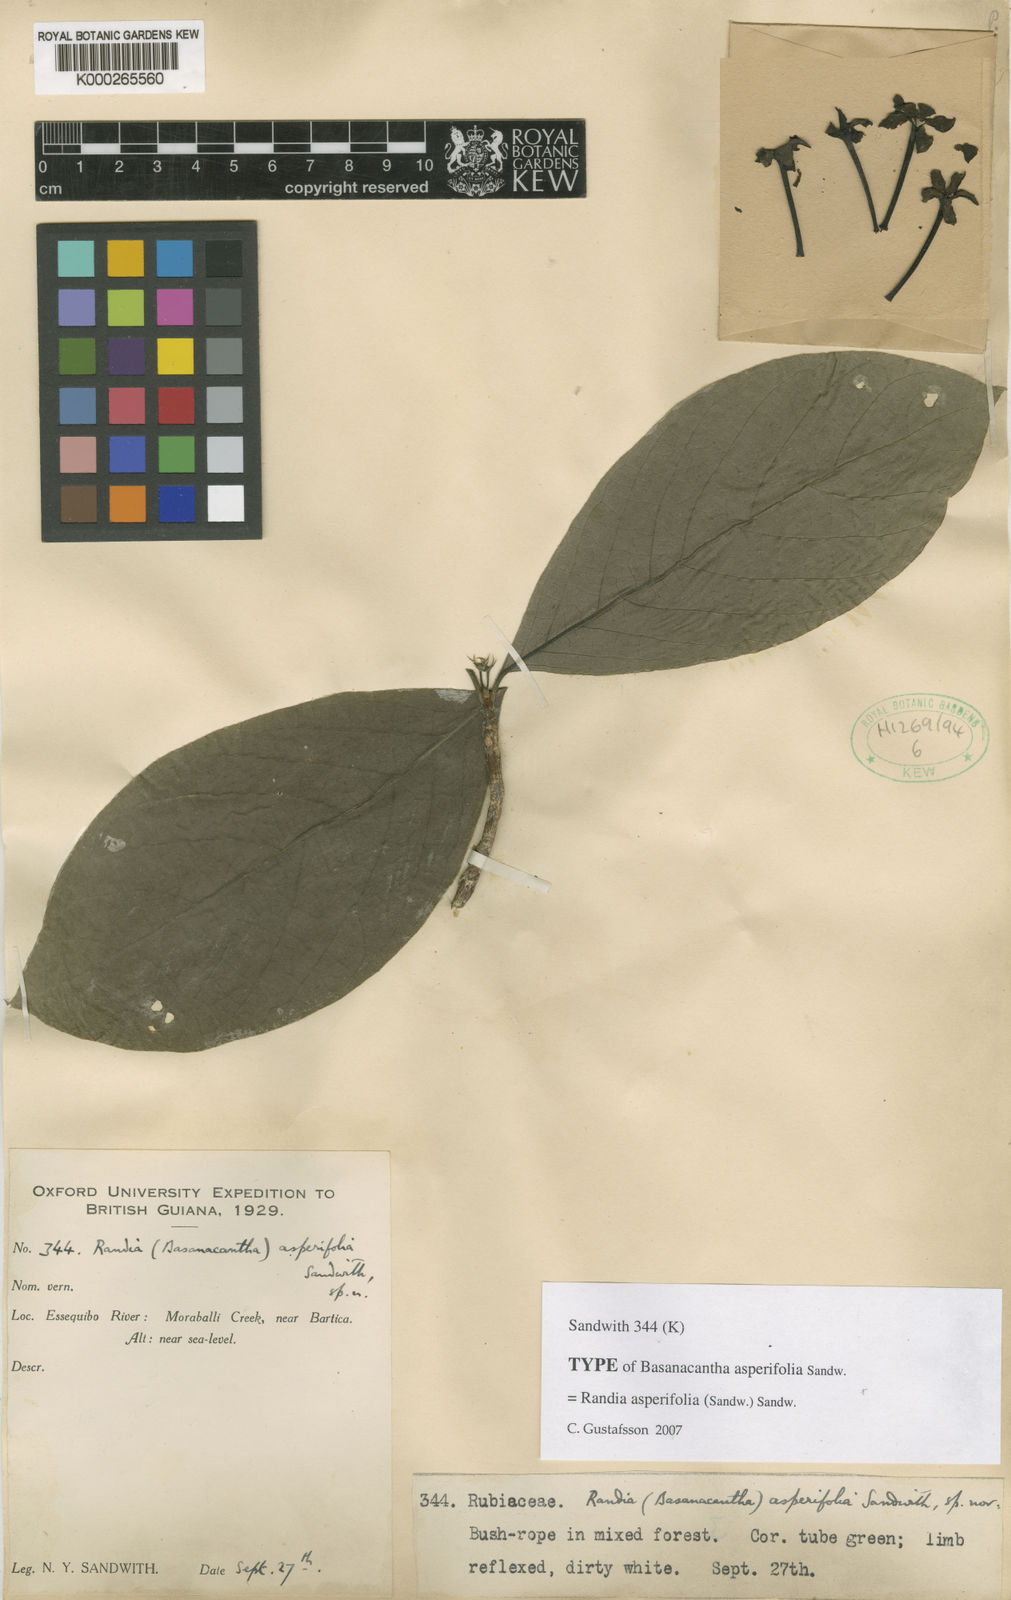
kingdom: Plantae
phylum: Tracheophyta
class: Magnoliopsida
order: Gentianales
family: Rubiaceae
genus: Randia
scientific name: Randia asperifolia
